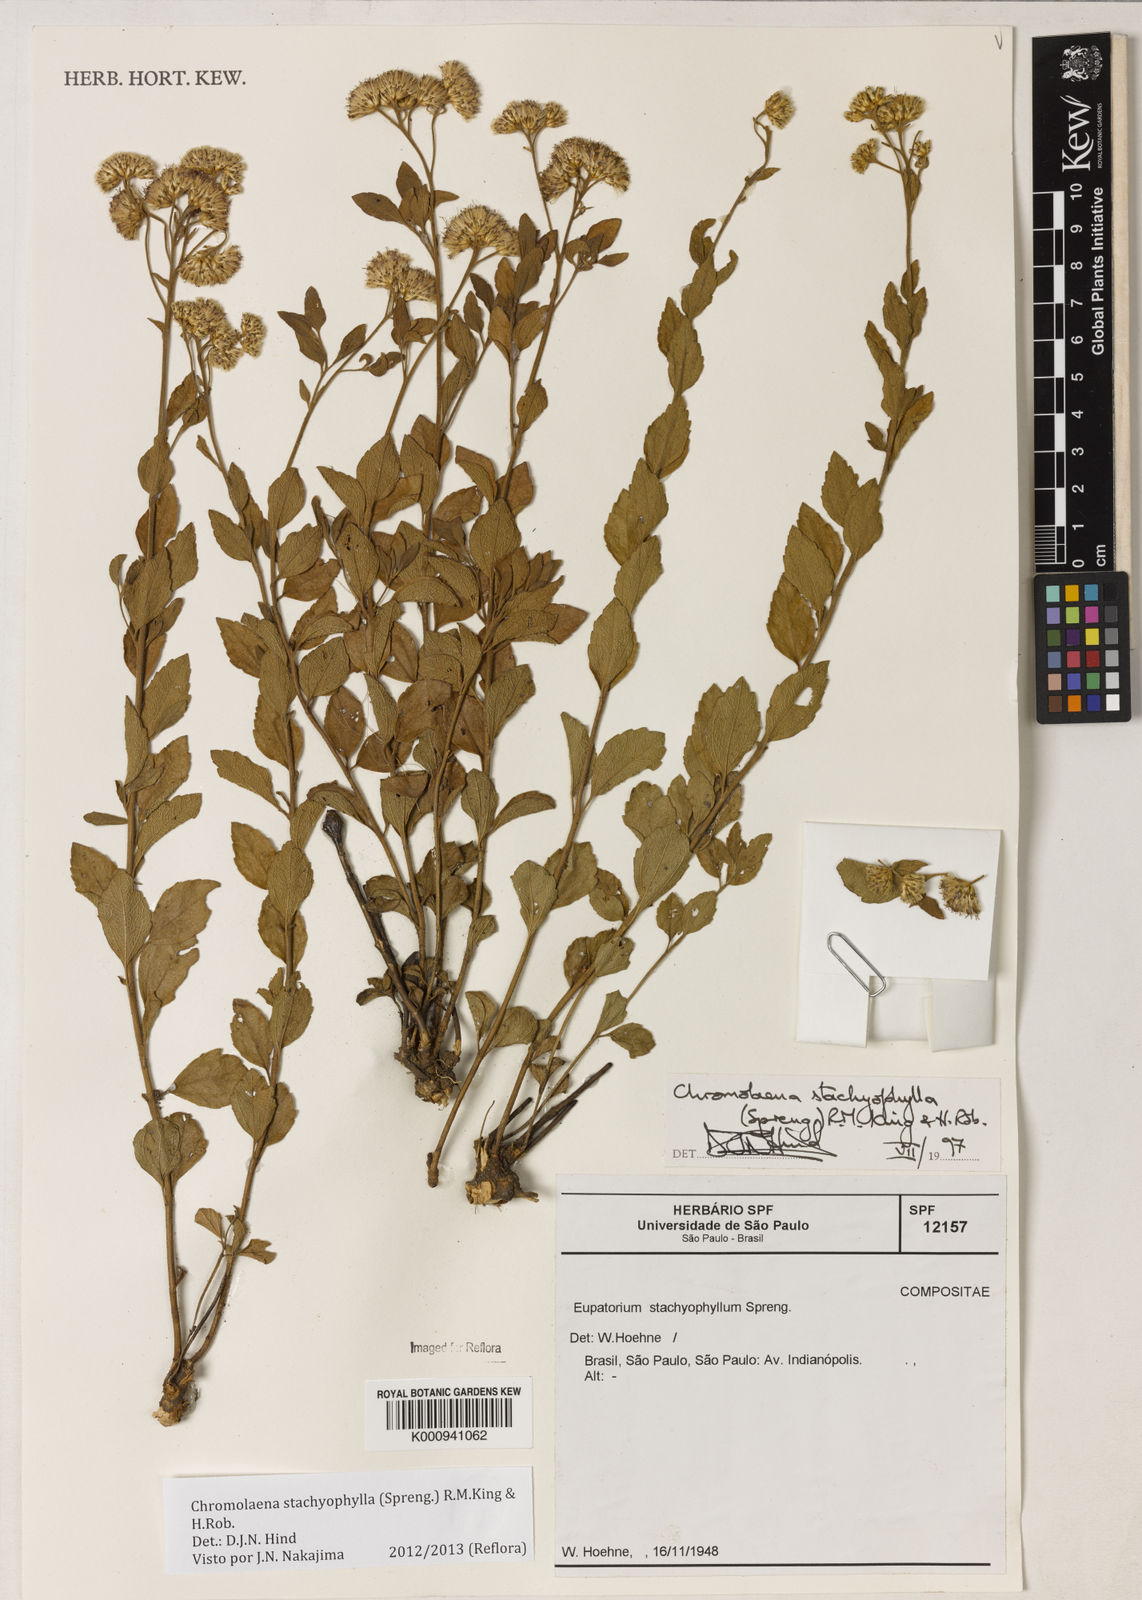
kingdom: Plantae
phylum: Tracheophyta
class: Magnoliopsida
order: Asterales
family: Asteraceae
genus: Chromolaena
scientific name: Chromolaena stachyophylla
